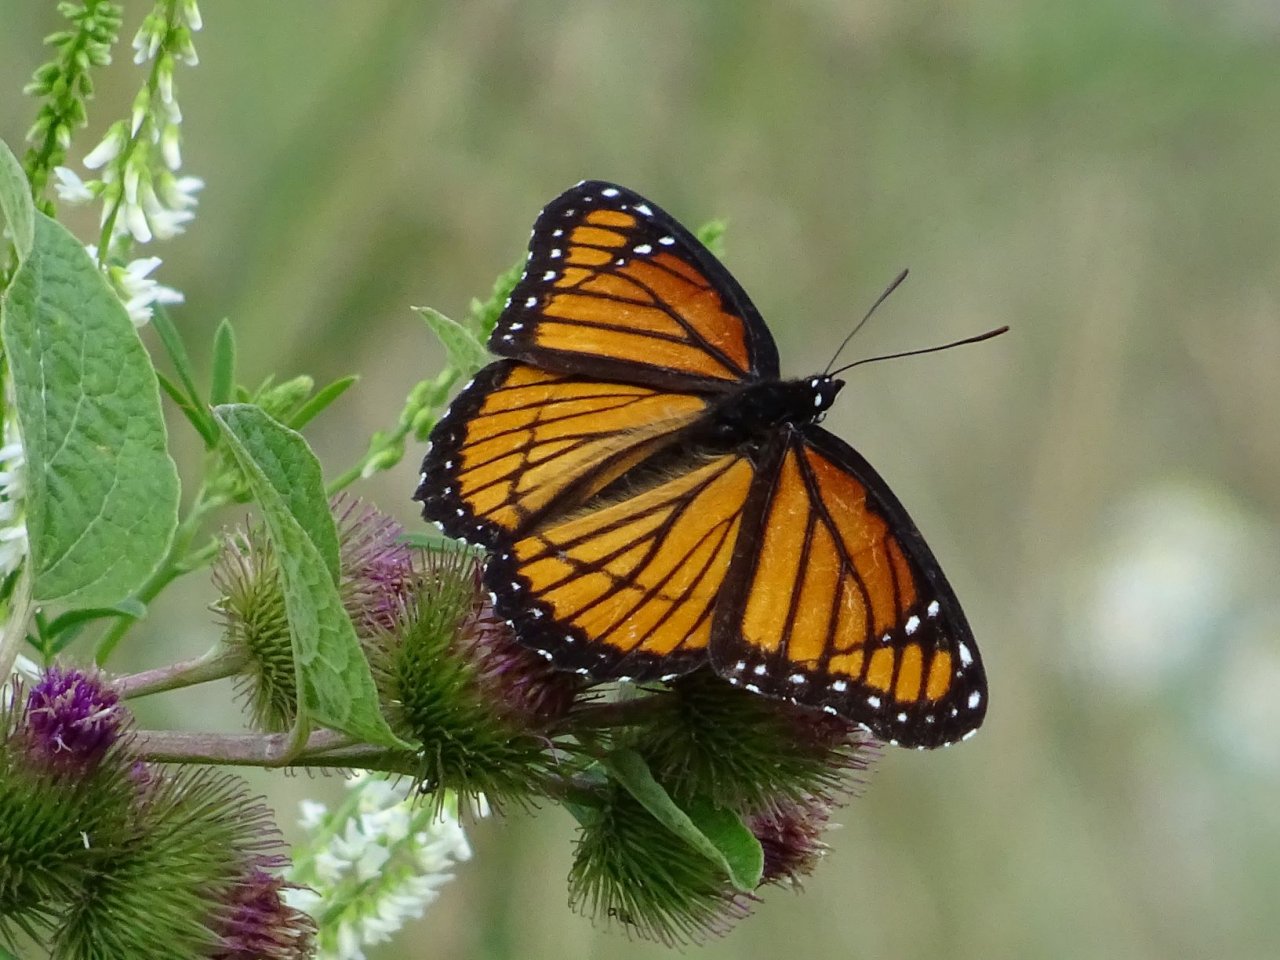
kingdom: Animalia
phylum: Arthropoda
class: Insecta
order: Lepidoptera
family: Nymphalidae
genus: Limenitis
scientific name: Limenitis archippus
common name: Viceroy
